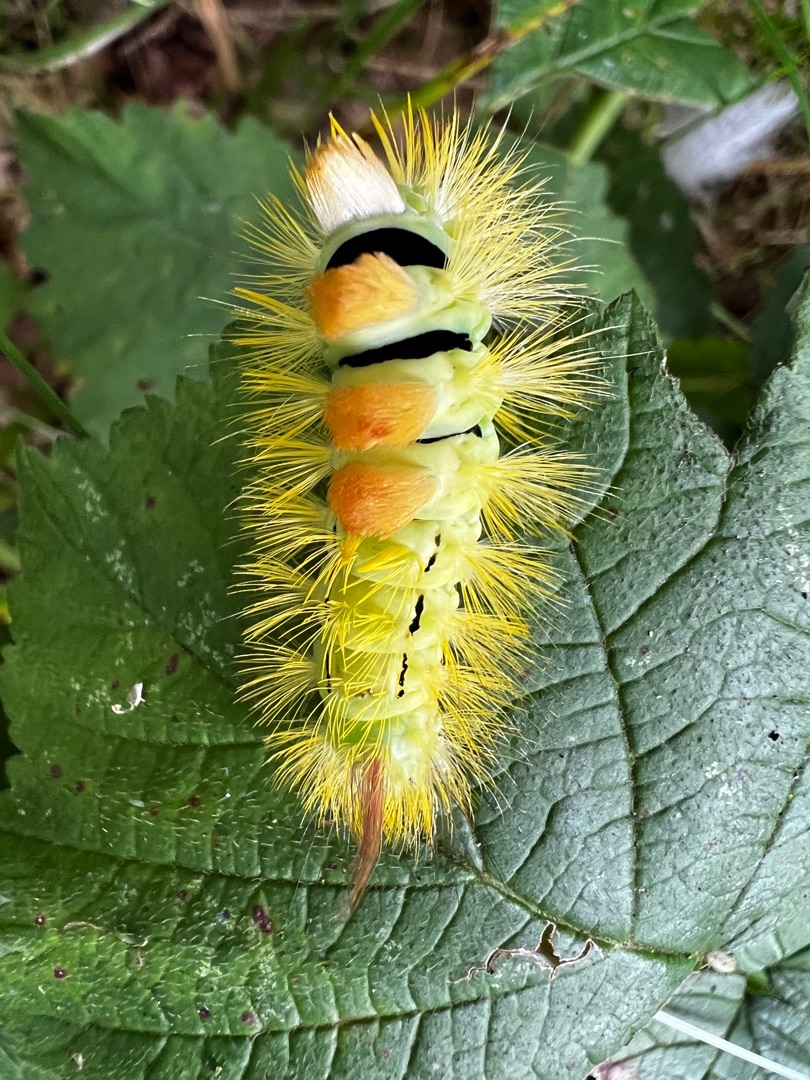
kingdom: Animalia
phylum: Arthropoda
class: Insecta
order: Lepidoptera
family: Erebidae
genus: Calliteara
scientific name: Calliteara pudibunda
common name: Bøgenonne
